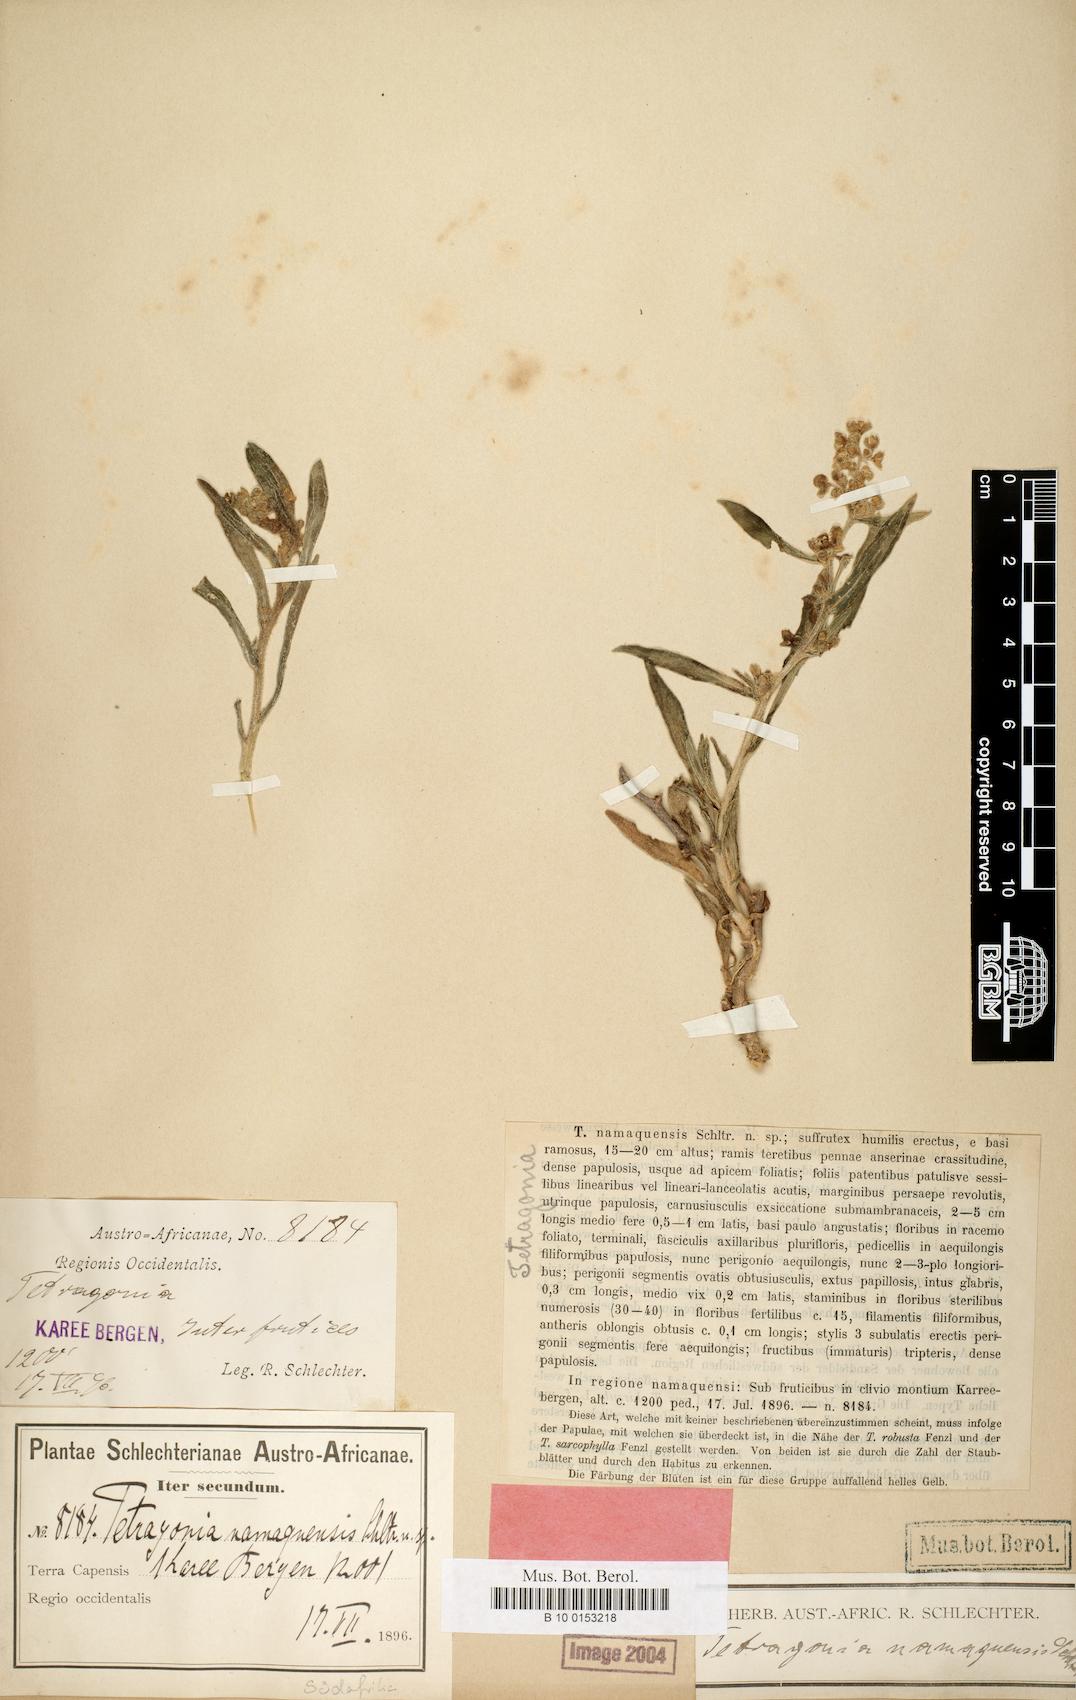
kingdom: Plantae
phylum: Tracheophyta
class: Magnoliopsida
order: Caryophyllales
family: Aizoaceae
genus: Tetragonia
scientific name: Tetragonia namaquensis
